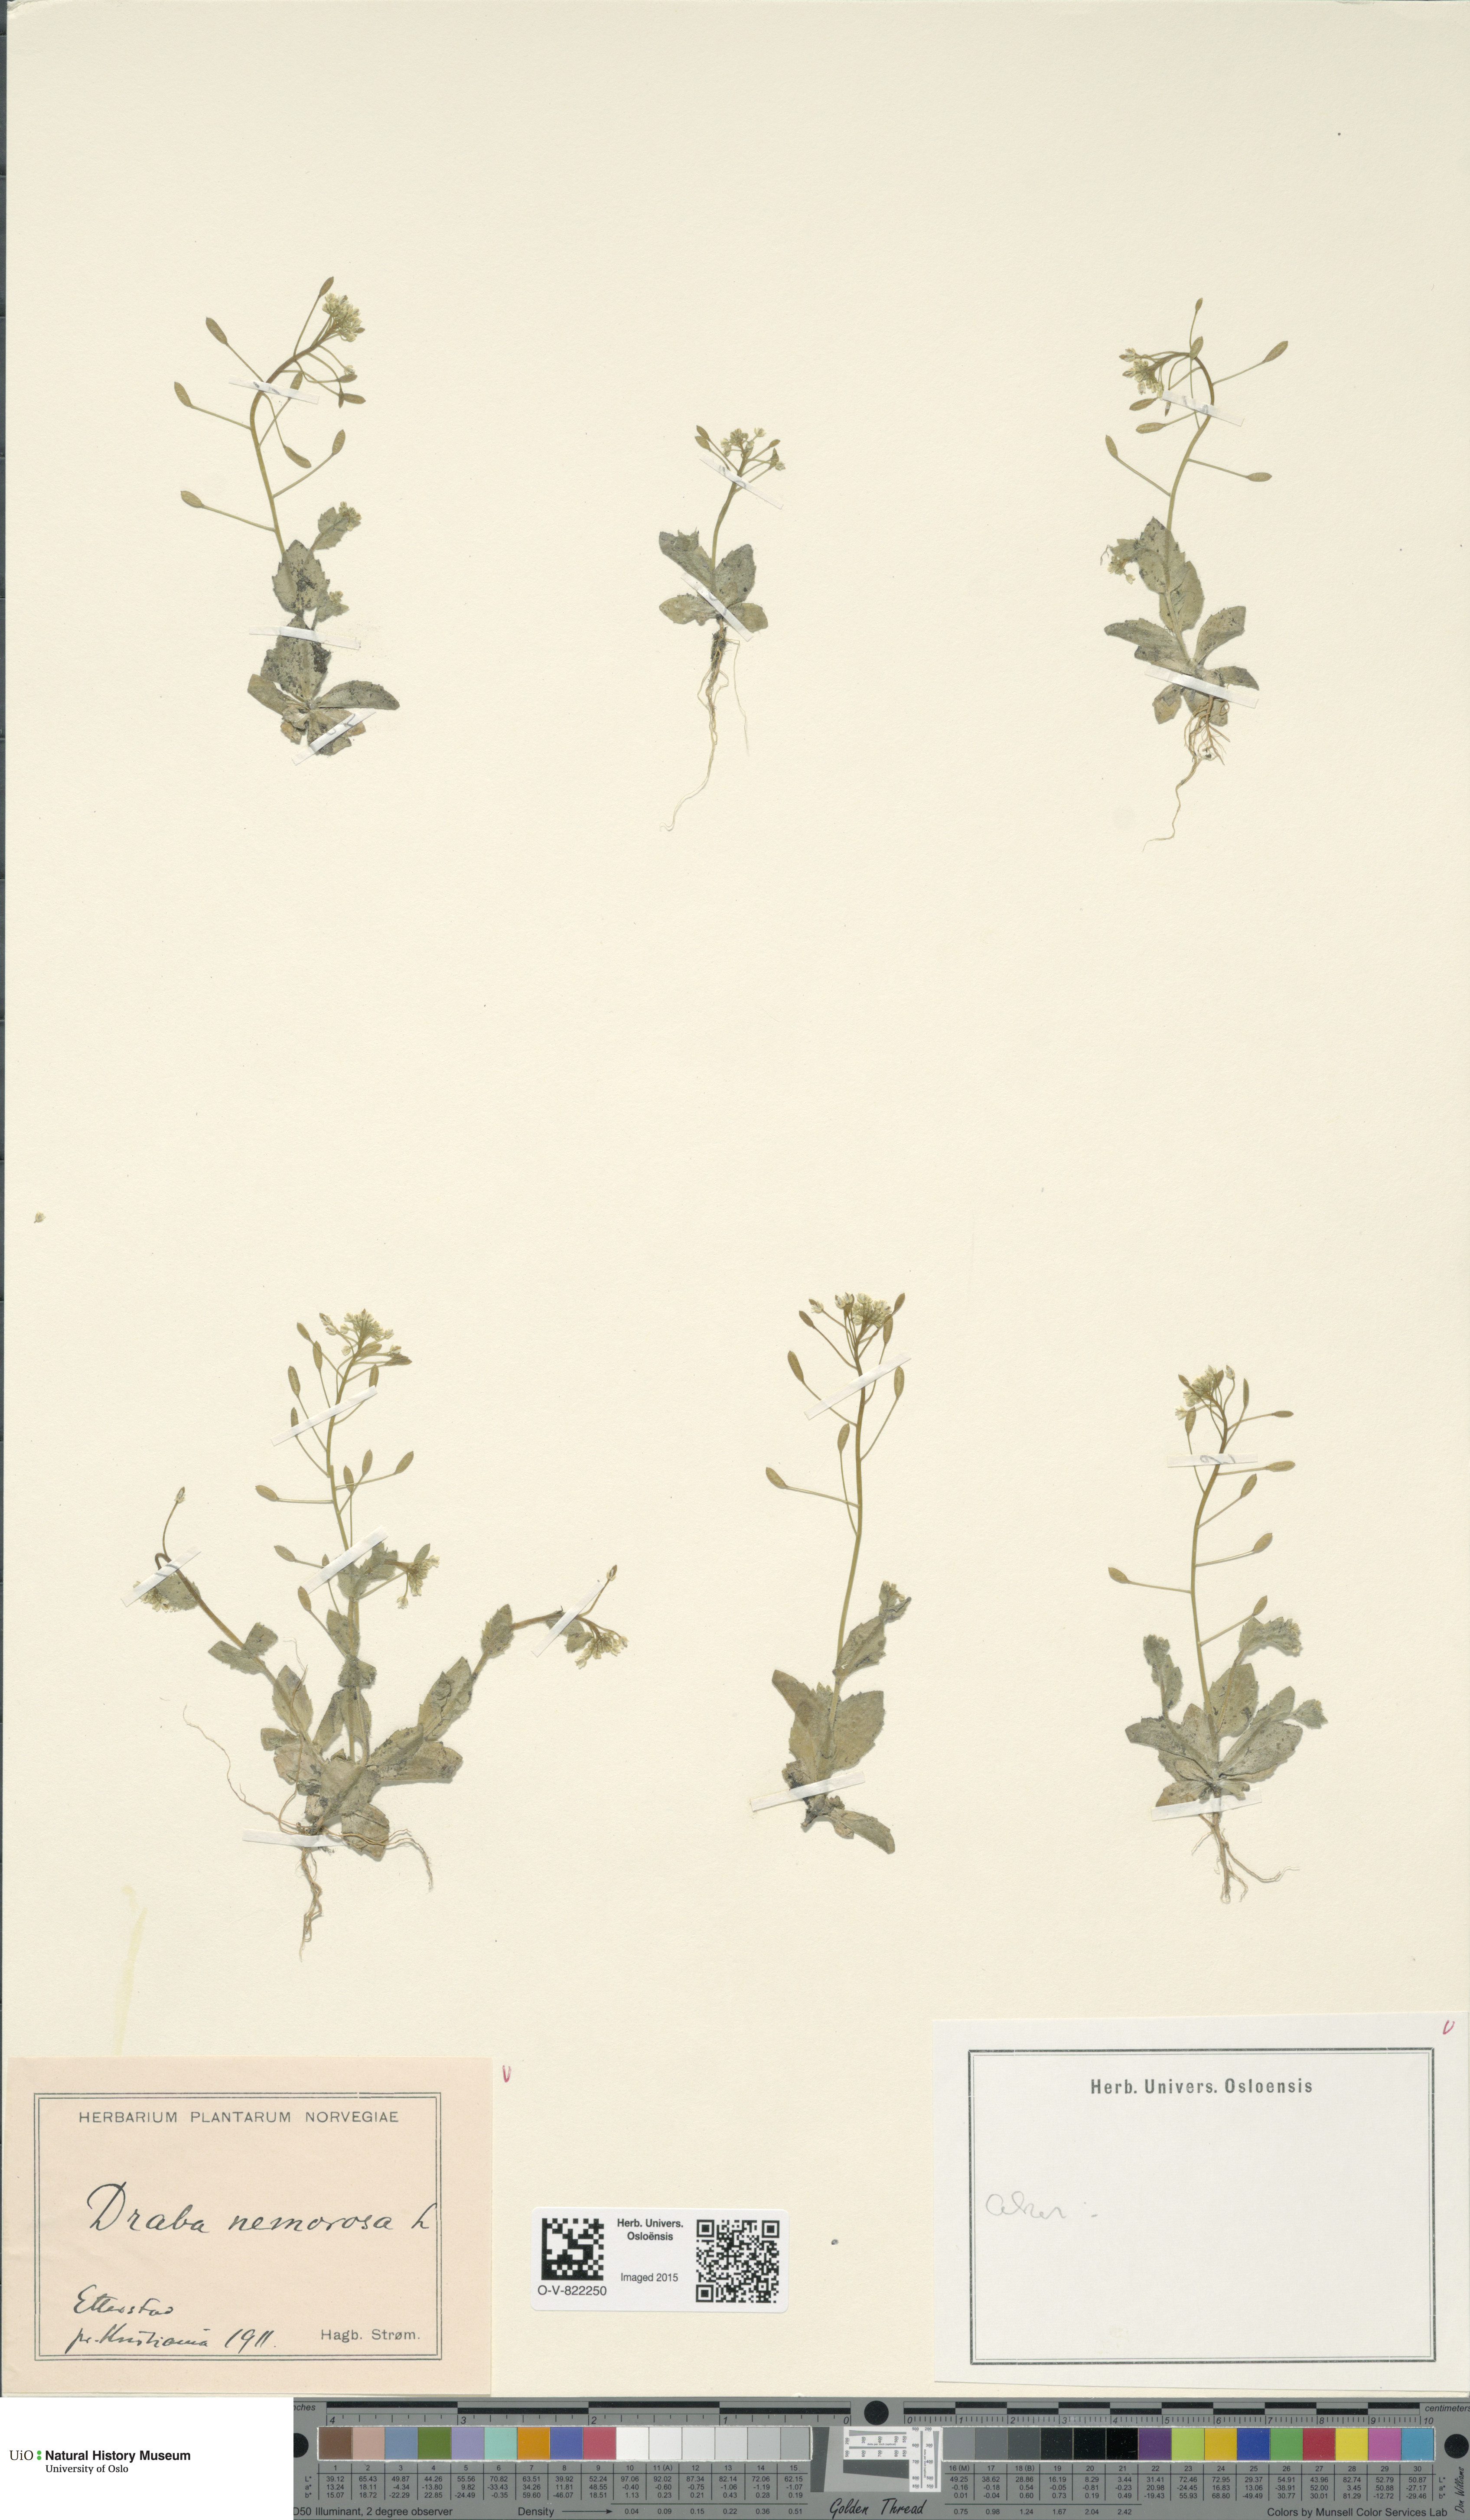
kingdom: Plantae
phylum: Tracheophyta
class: Magnoliopsida
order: Brassicales
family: Brassicaceae
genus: Draba
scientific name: Draba nemorosa
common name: Wood whitlow-grass
